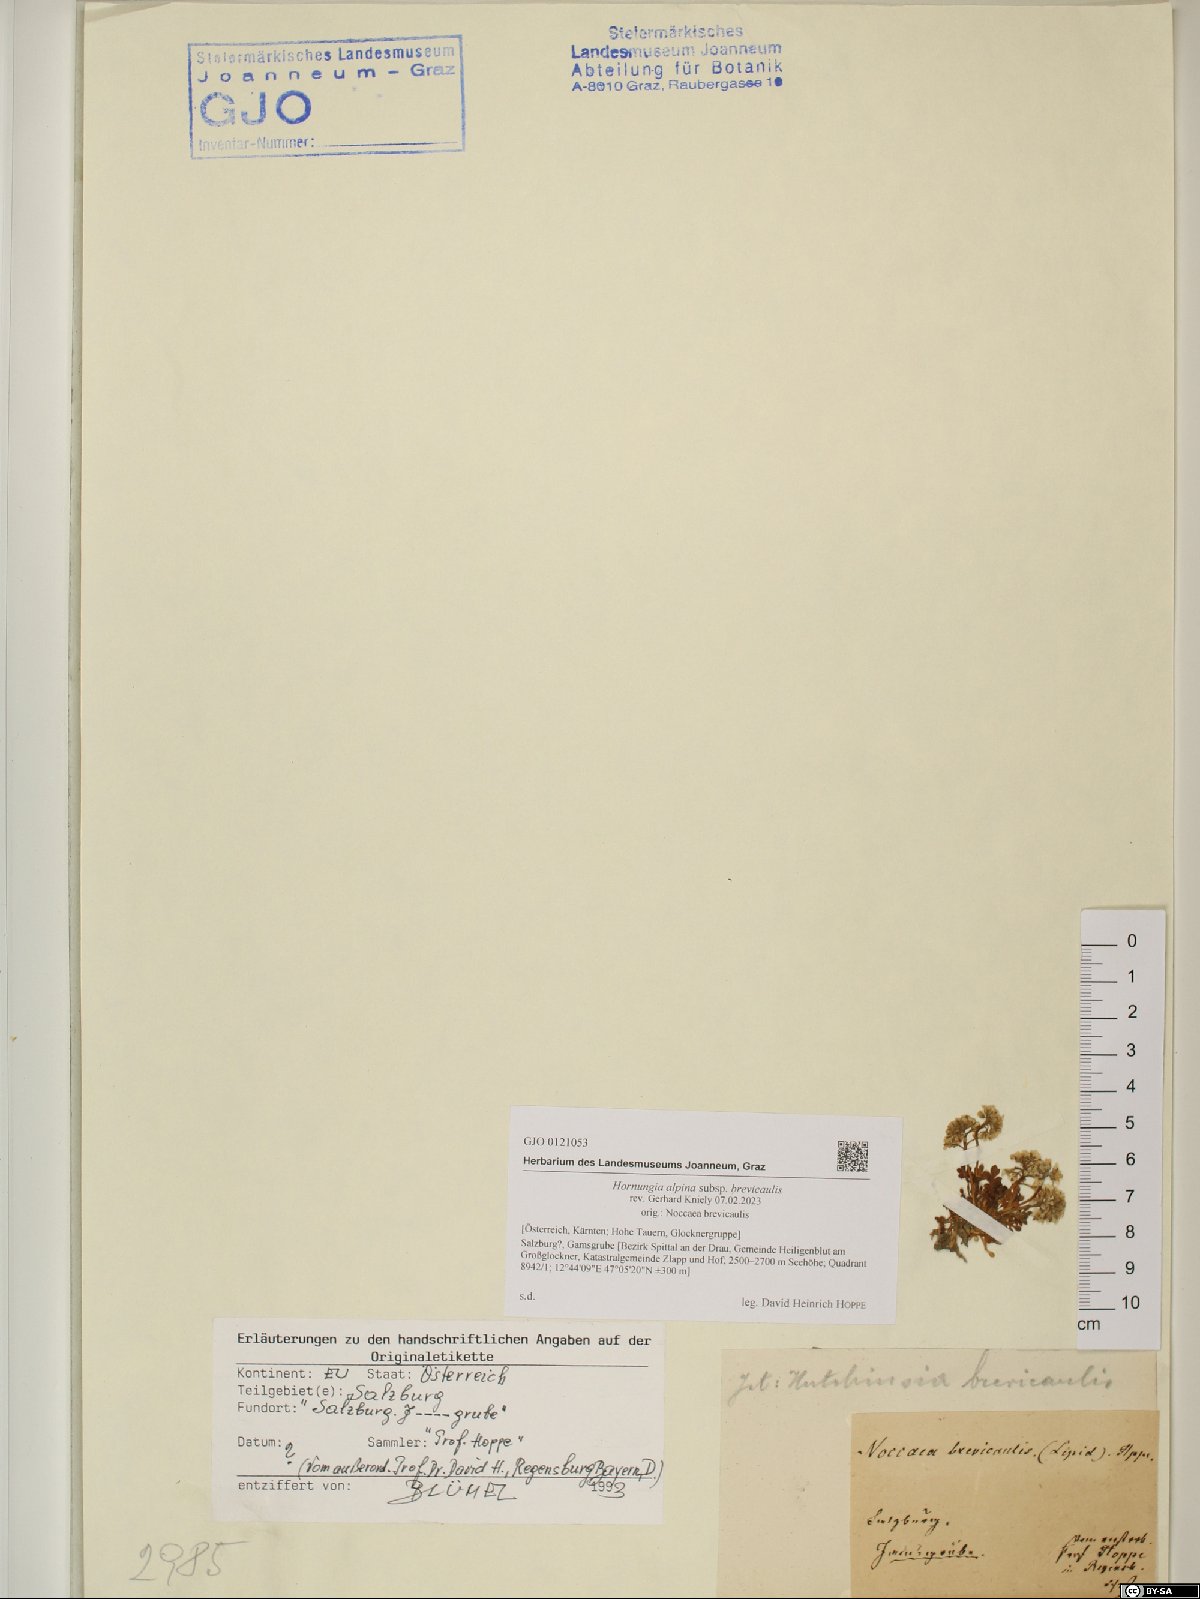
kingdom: Plantae
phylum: Tracheophyta
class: Magnoliopsida
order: Brassicales
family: Brassicaceae
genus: Hornungia
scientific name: Hornungia alpina
